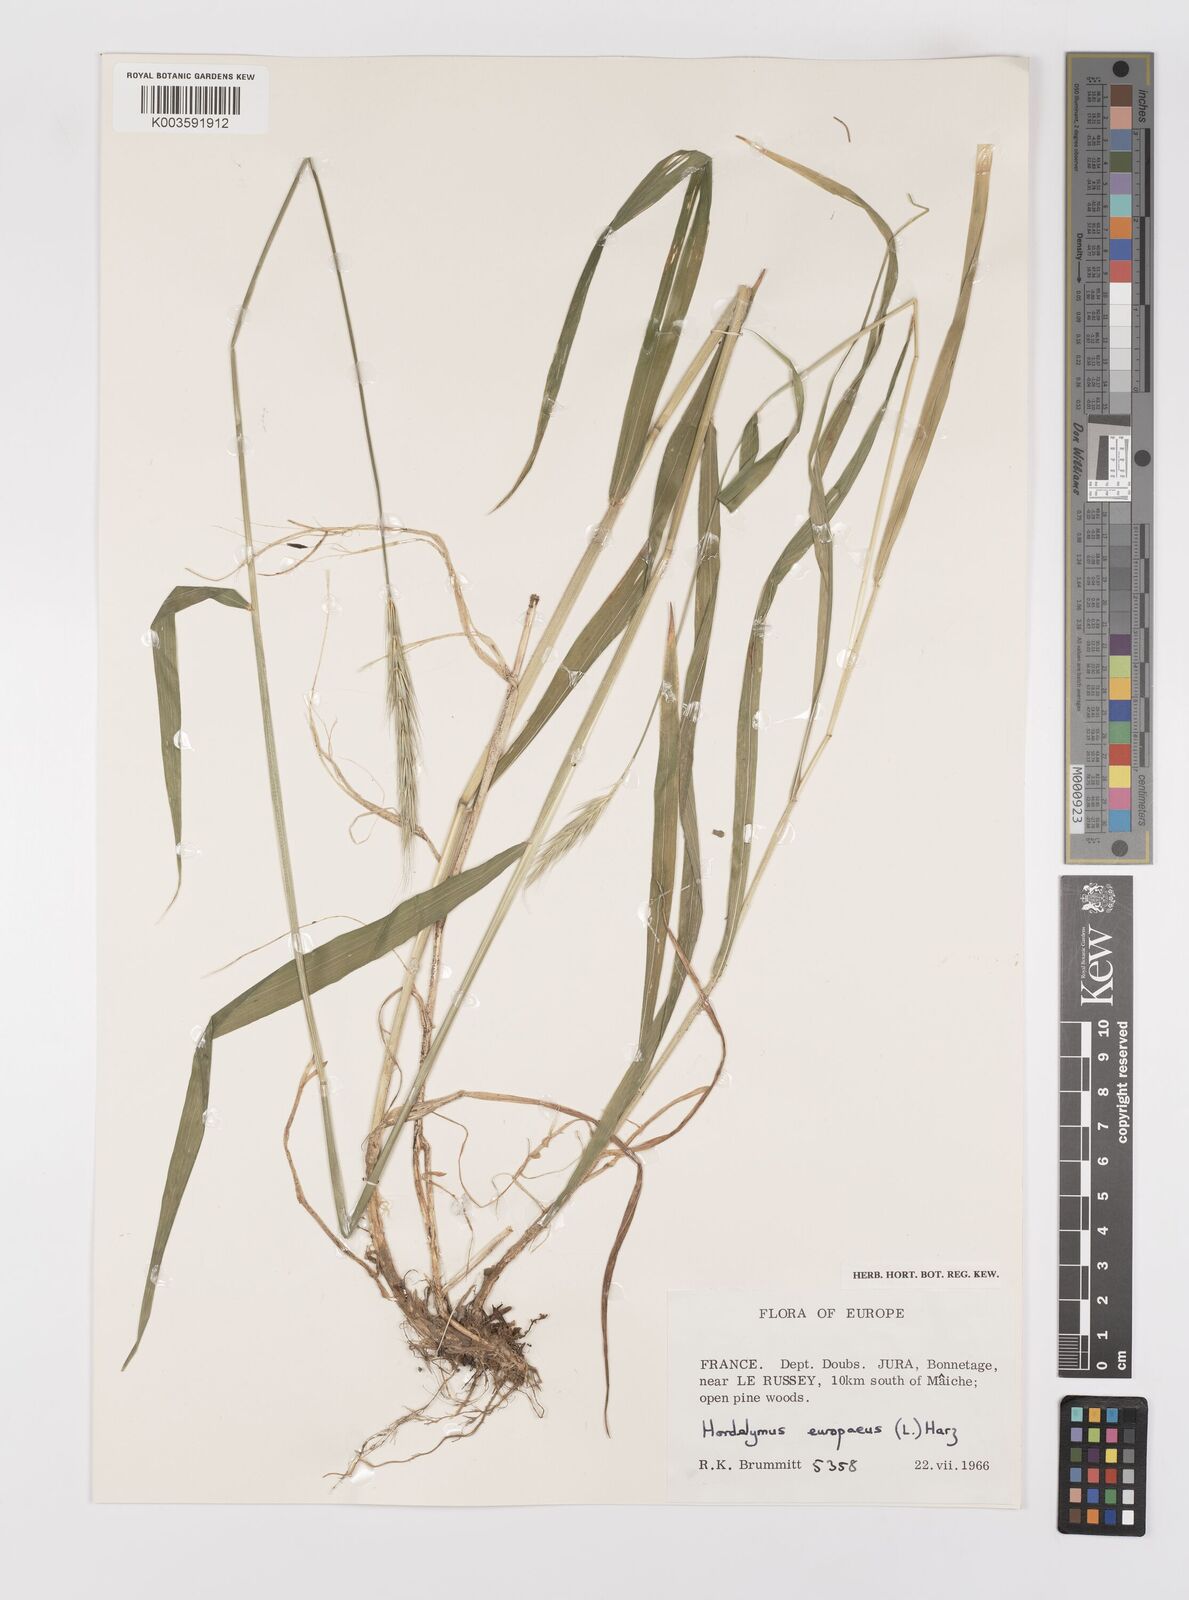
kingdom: Plantae
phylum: Tracheophyta
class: Liliopsida
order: Poales
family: Poaceae
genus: Hordelymus
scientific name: Hordelymus europaeus
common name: Wood-barley
